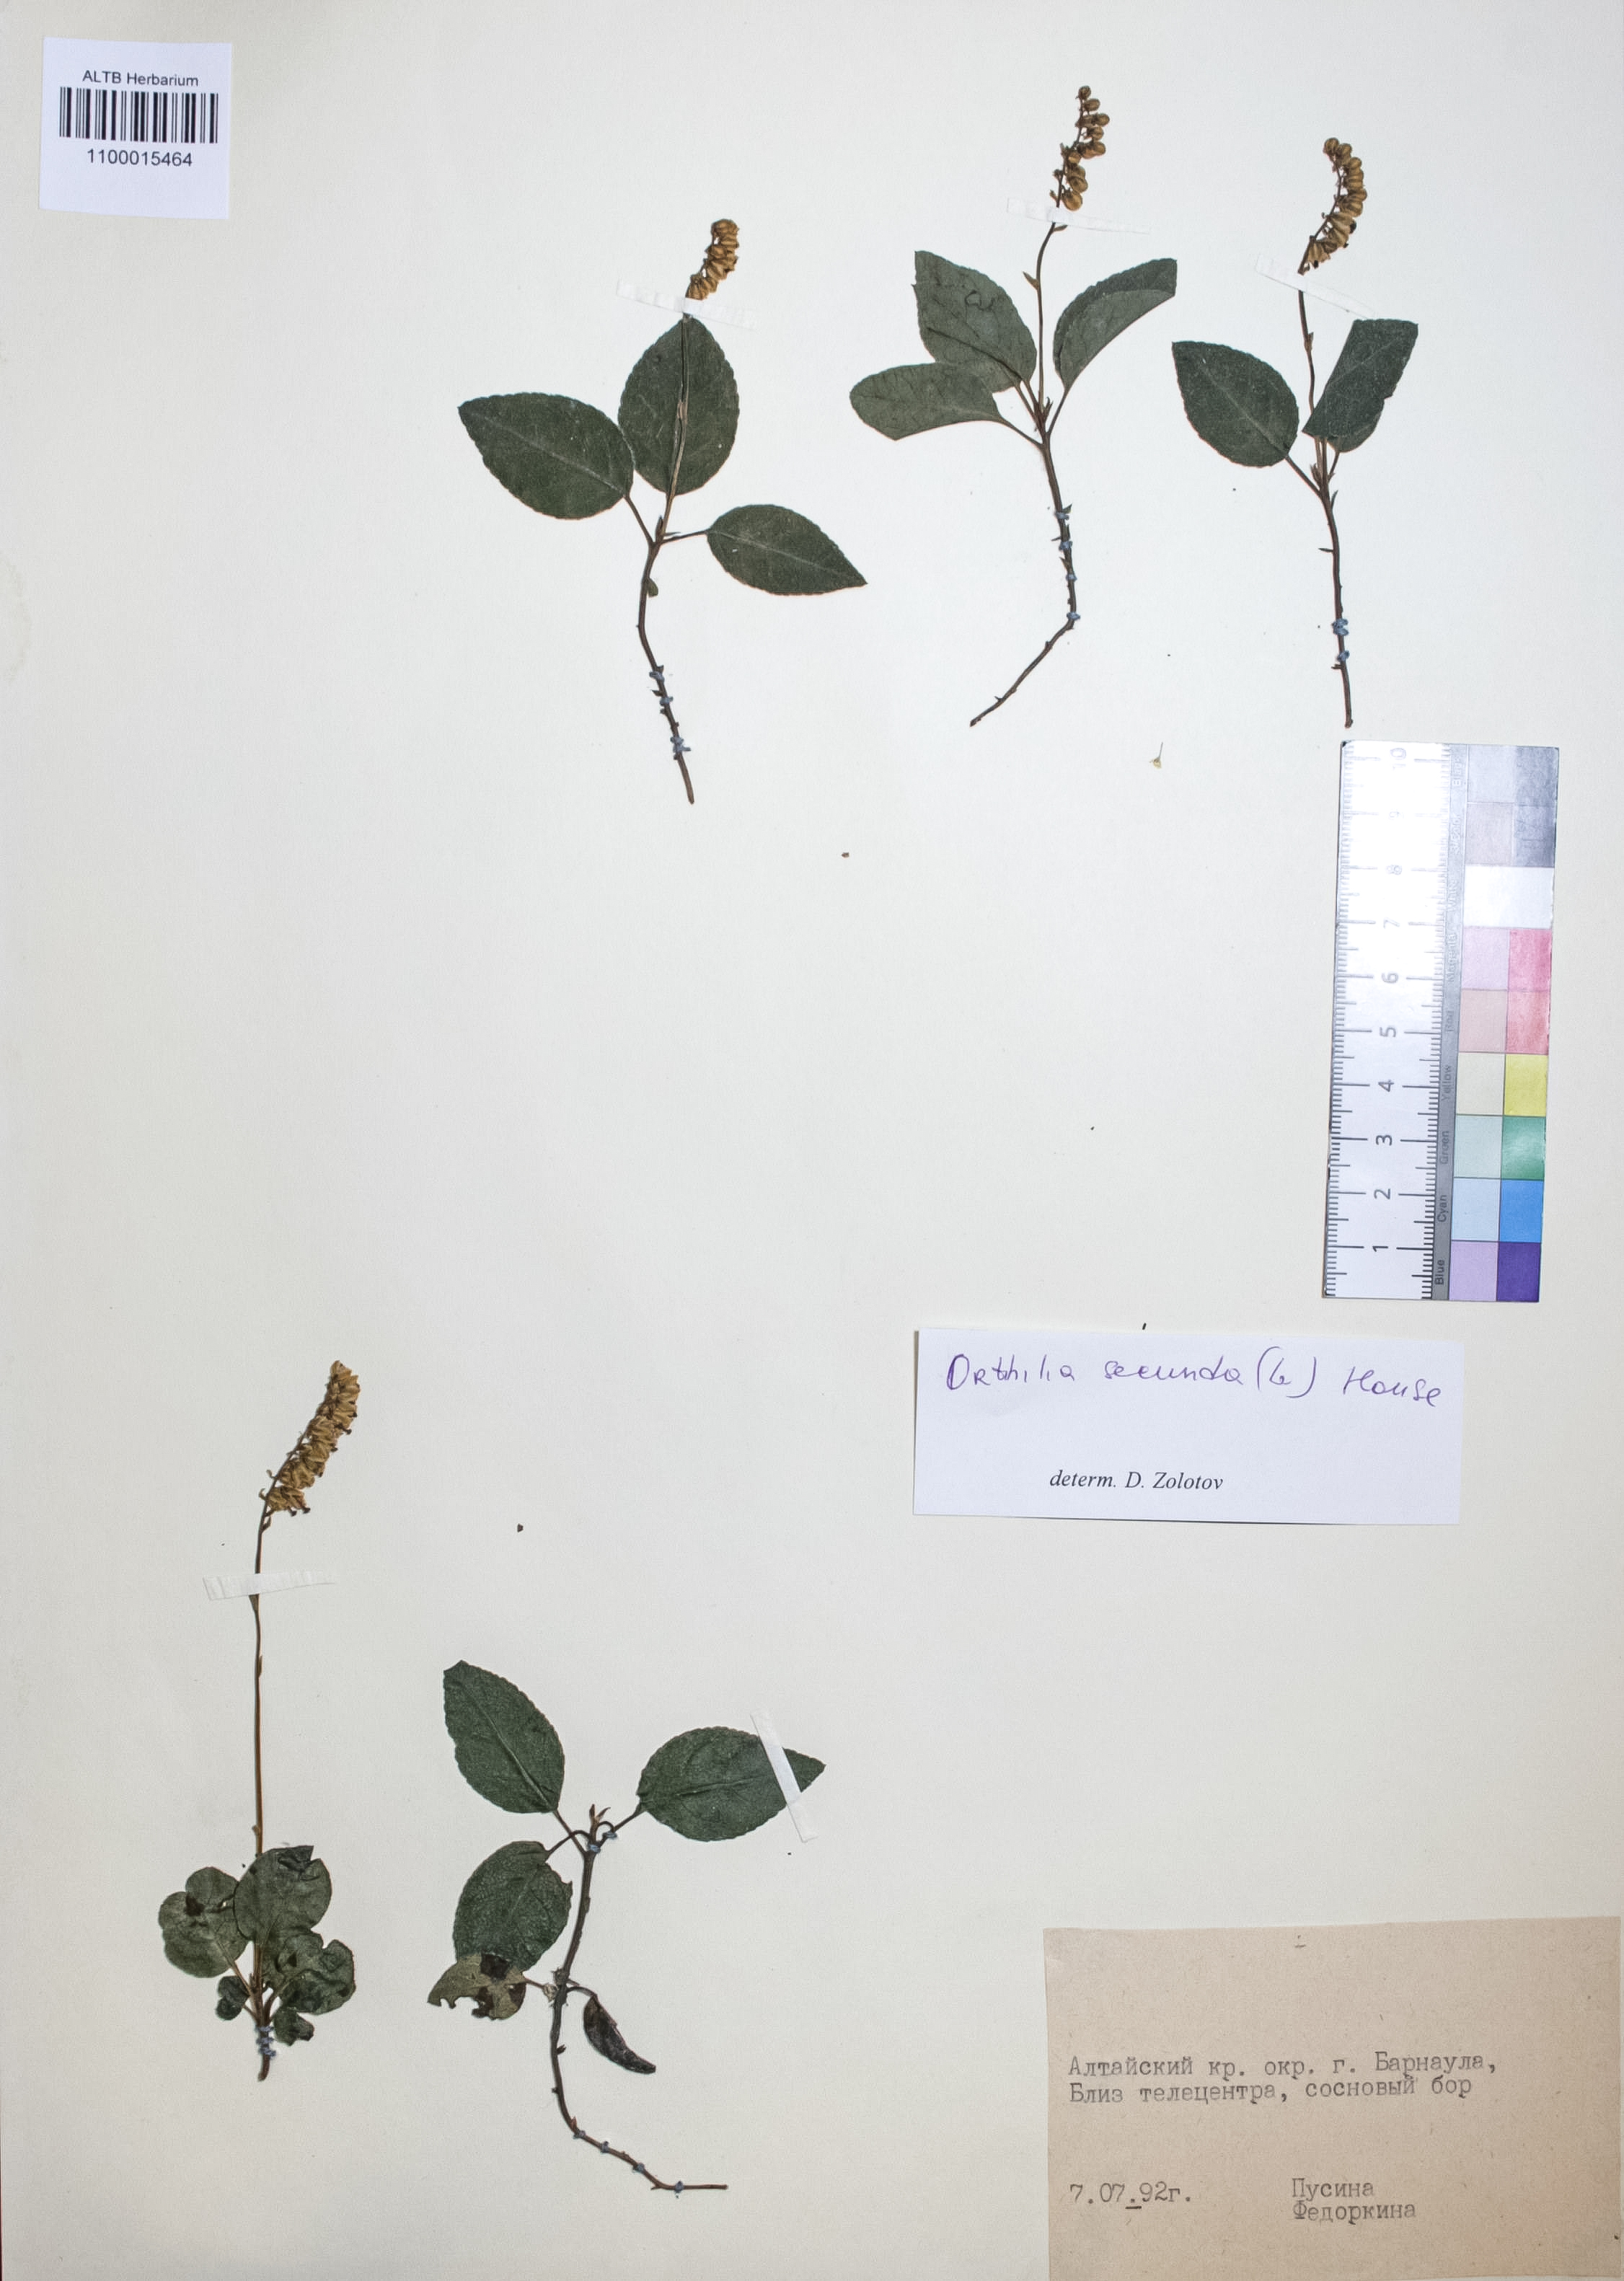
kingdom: Plantae
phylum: Tracheophyta
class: Magnoliopsida
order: Ericales
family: Ericaceae
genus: Orthilia
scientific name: Orthilia secunda
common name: One-sided orthilia
